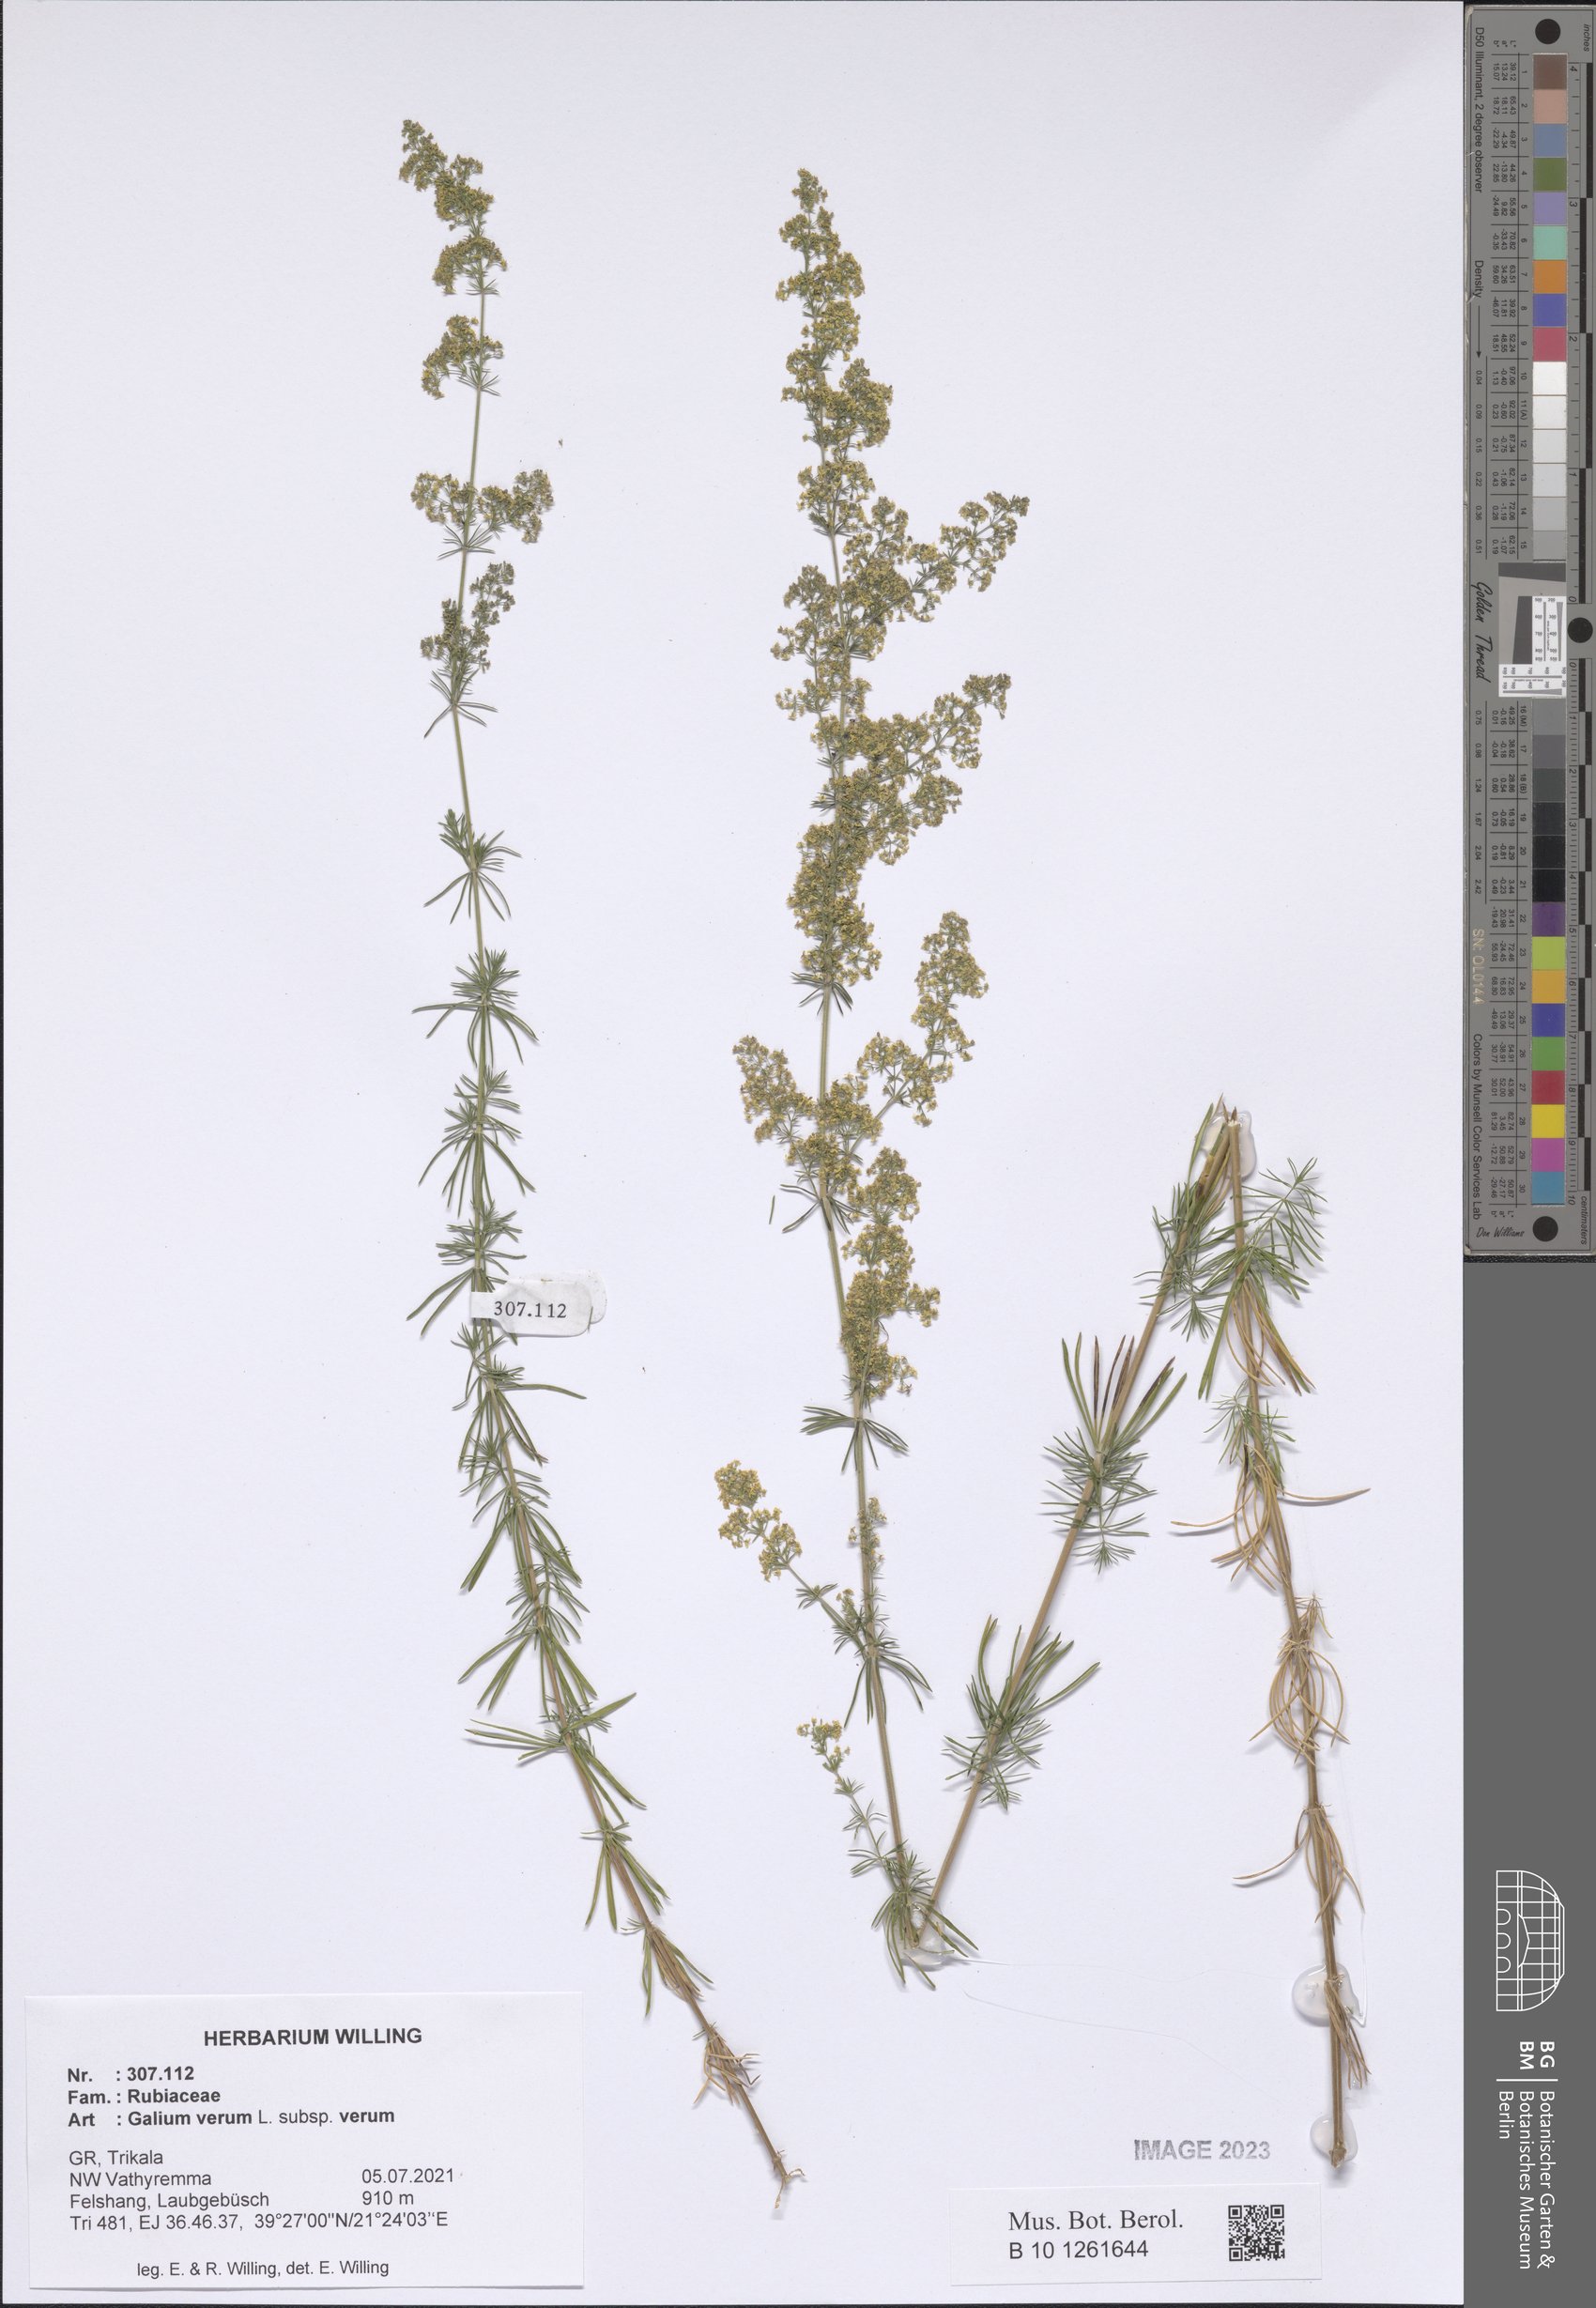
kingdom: Plantae
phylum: Tracheophyta
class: Magnoliopsida
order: Gentianales
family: Rubiaceae
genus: Galium
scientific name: Galium verum
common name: Lady's bedstraw
